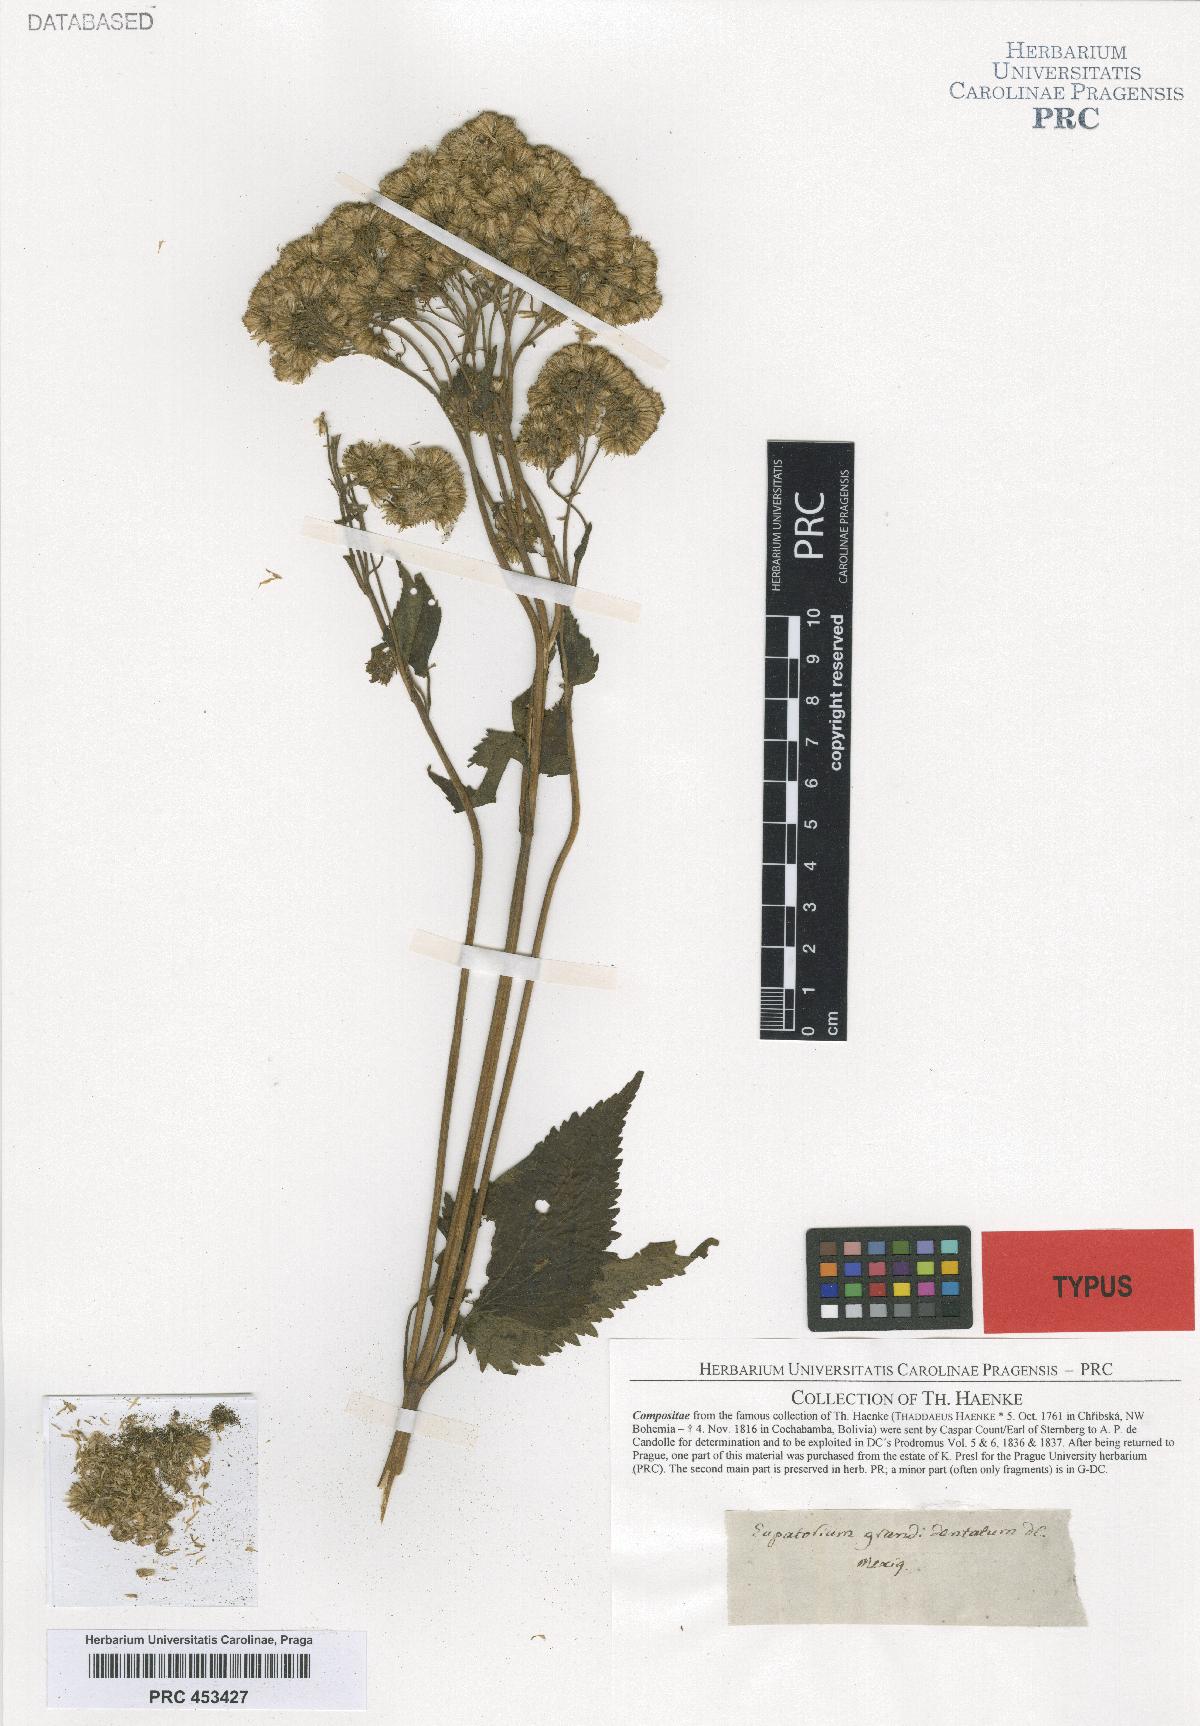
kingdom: Plantae
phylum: Tracheophyta
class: Magnoliopsida
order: Asterales
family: Asteraceae
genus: Ageratina
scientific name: Ageratina pazcuarensis
